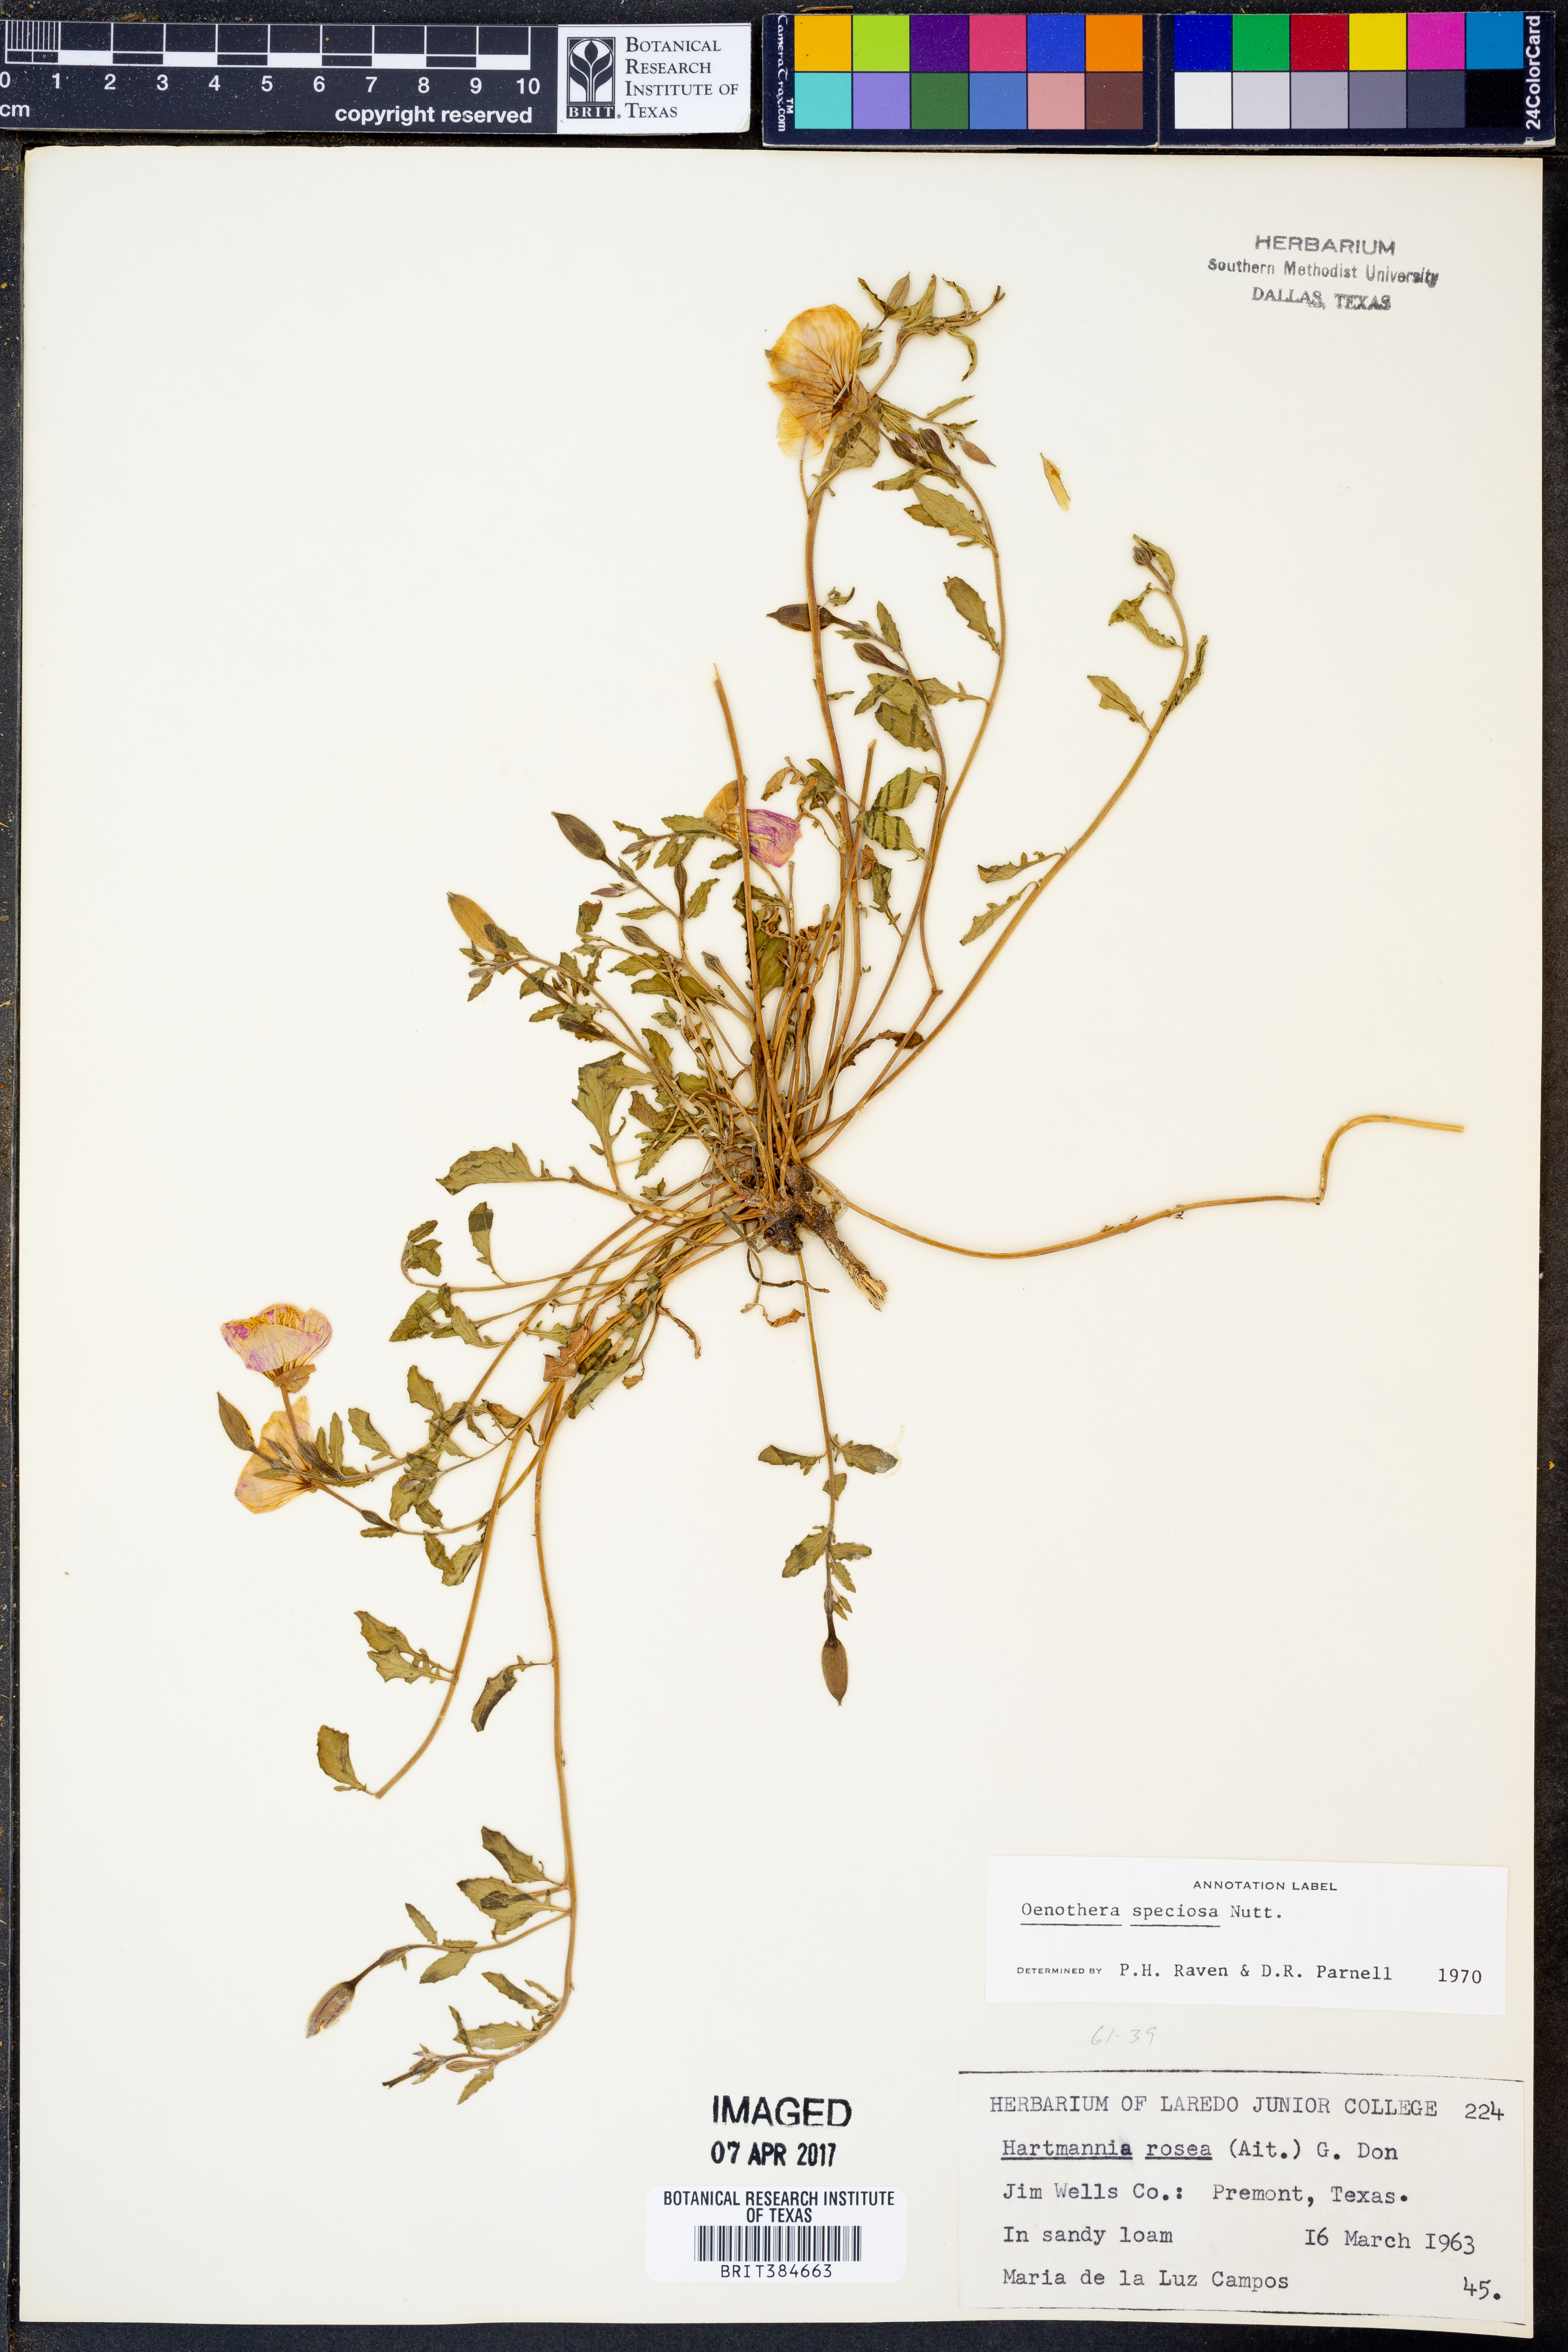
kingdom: Plantae
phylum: Tracheophyta
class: Magnoliopsida
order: Myrtales
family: Onagraceae
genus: Oenothera
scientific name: Oenothera speciosa
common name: White evening-primrose
